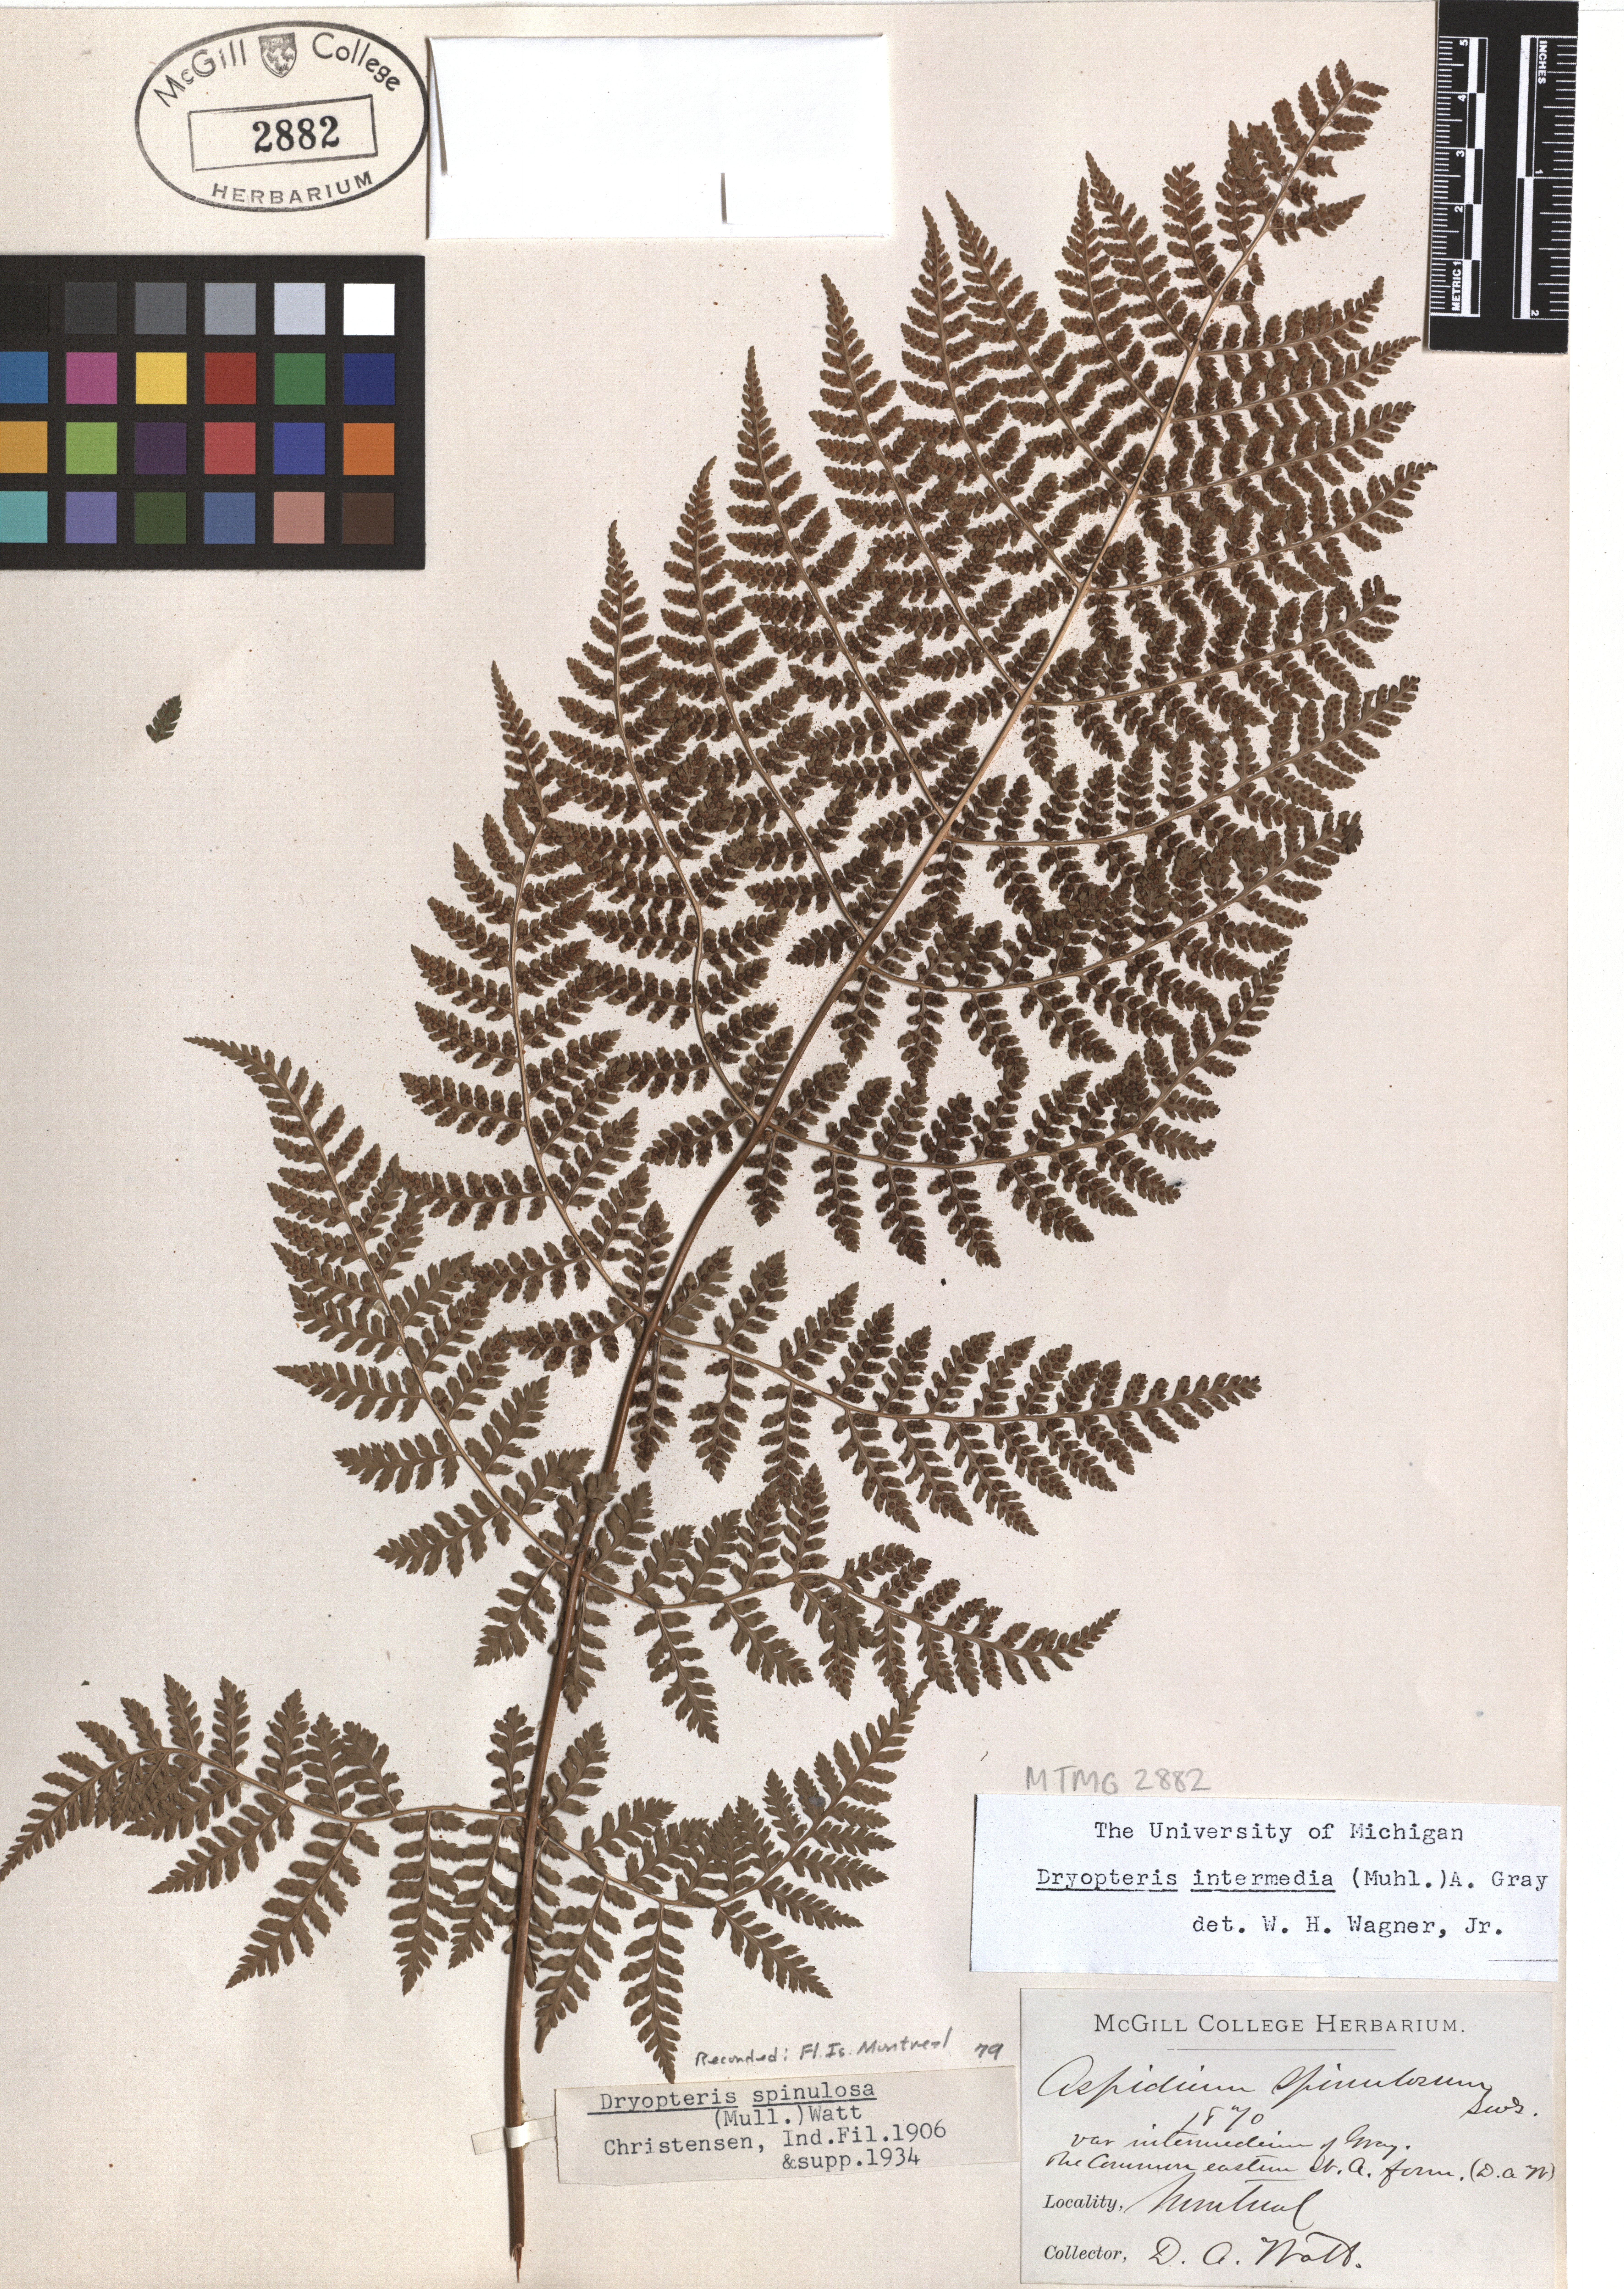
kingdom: Plantae
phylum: Tracheophyta
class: Polypodiopsida
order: Polypodiales
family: Dryopteridaceae
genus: Dryopteris
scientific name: Dryopteris intermedia
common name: Evergreen wood fern
